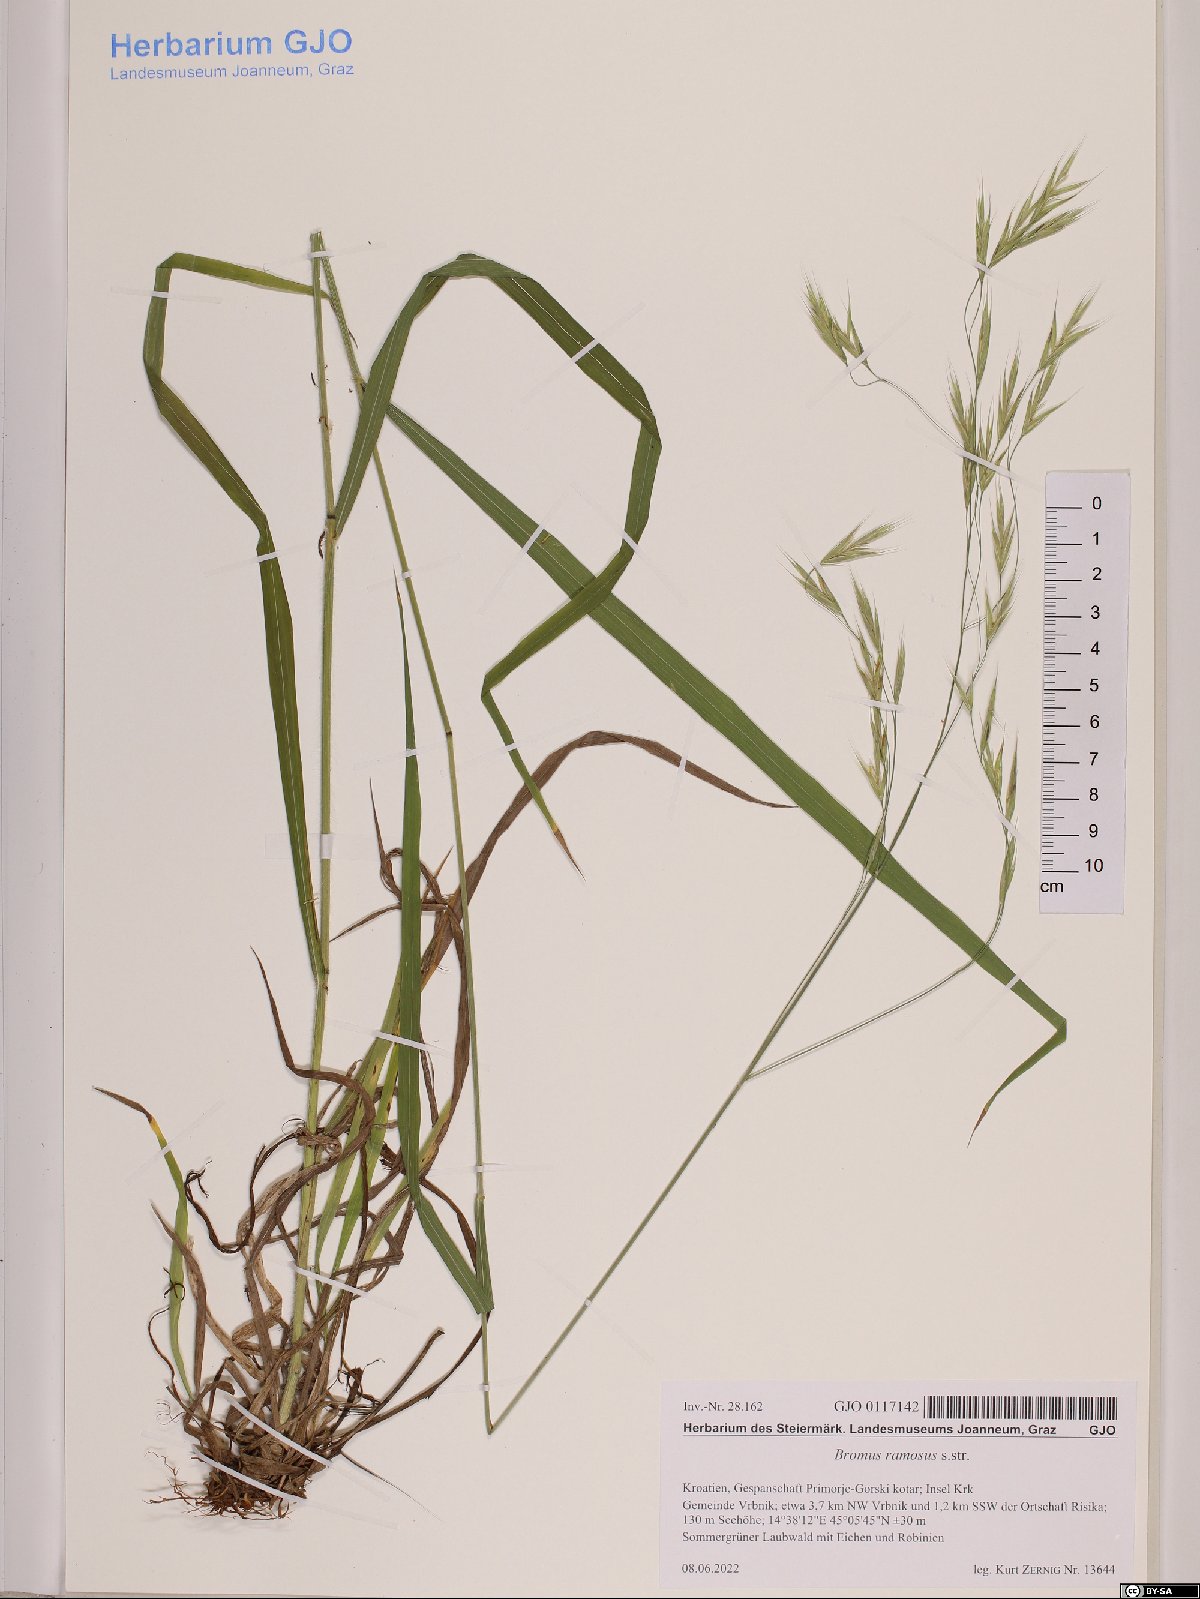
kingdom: Plantae
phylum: Tracheophyta
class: Liliopsida
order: Poales
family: Poaceae
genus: Bromus
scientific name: Bromus ramosus
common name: Hairy brome
